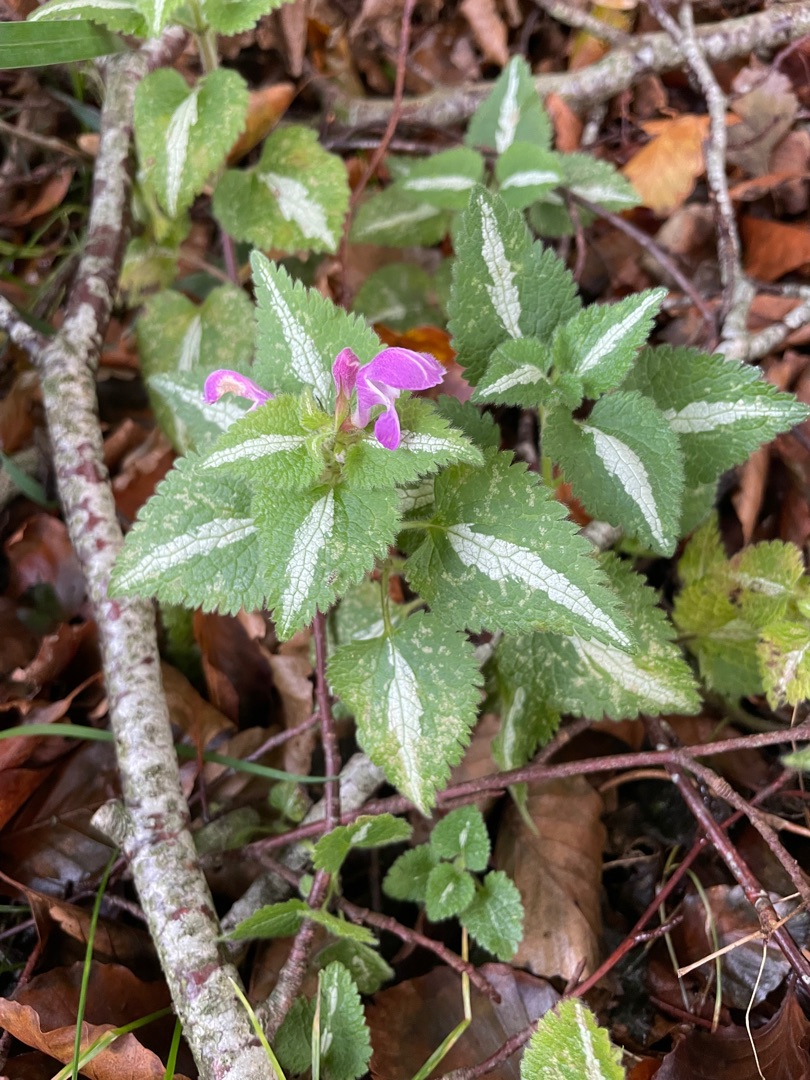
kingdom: Plantae
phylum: Tracheophyta
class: Magnoliopsida
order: Lamiales
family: Lamiaceae
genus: Lamium
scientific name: Lamium maculatum
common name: Plettet tvetand
